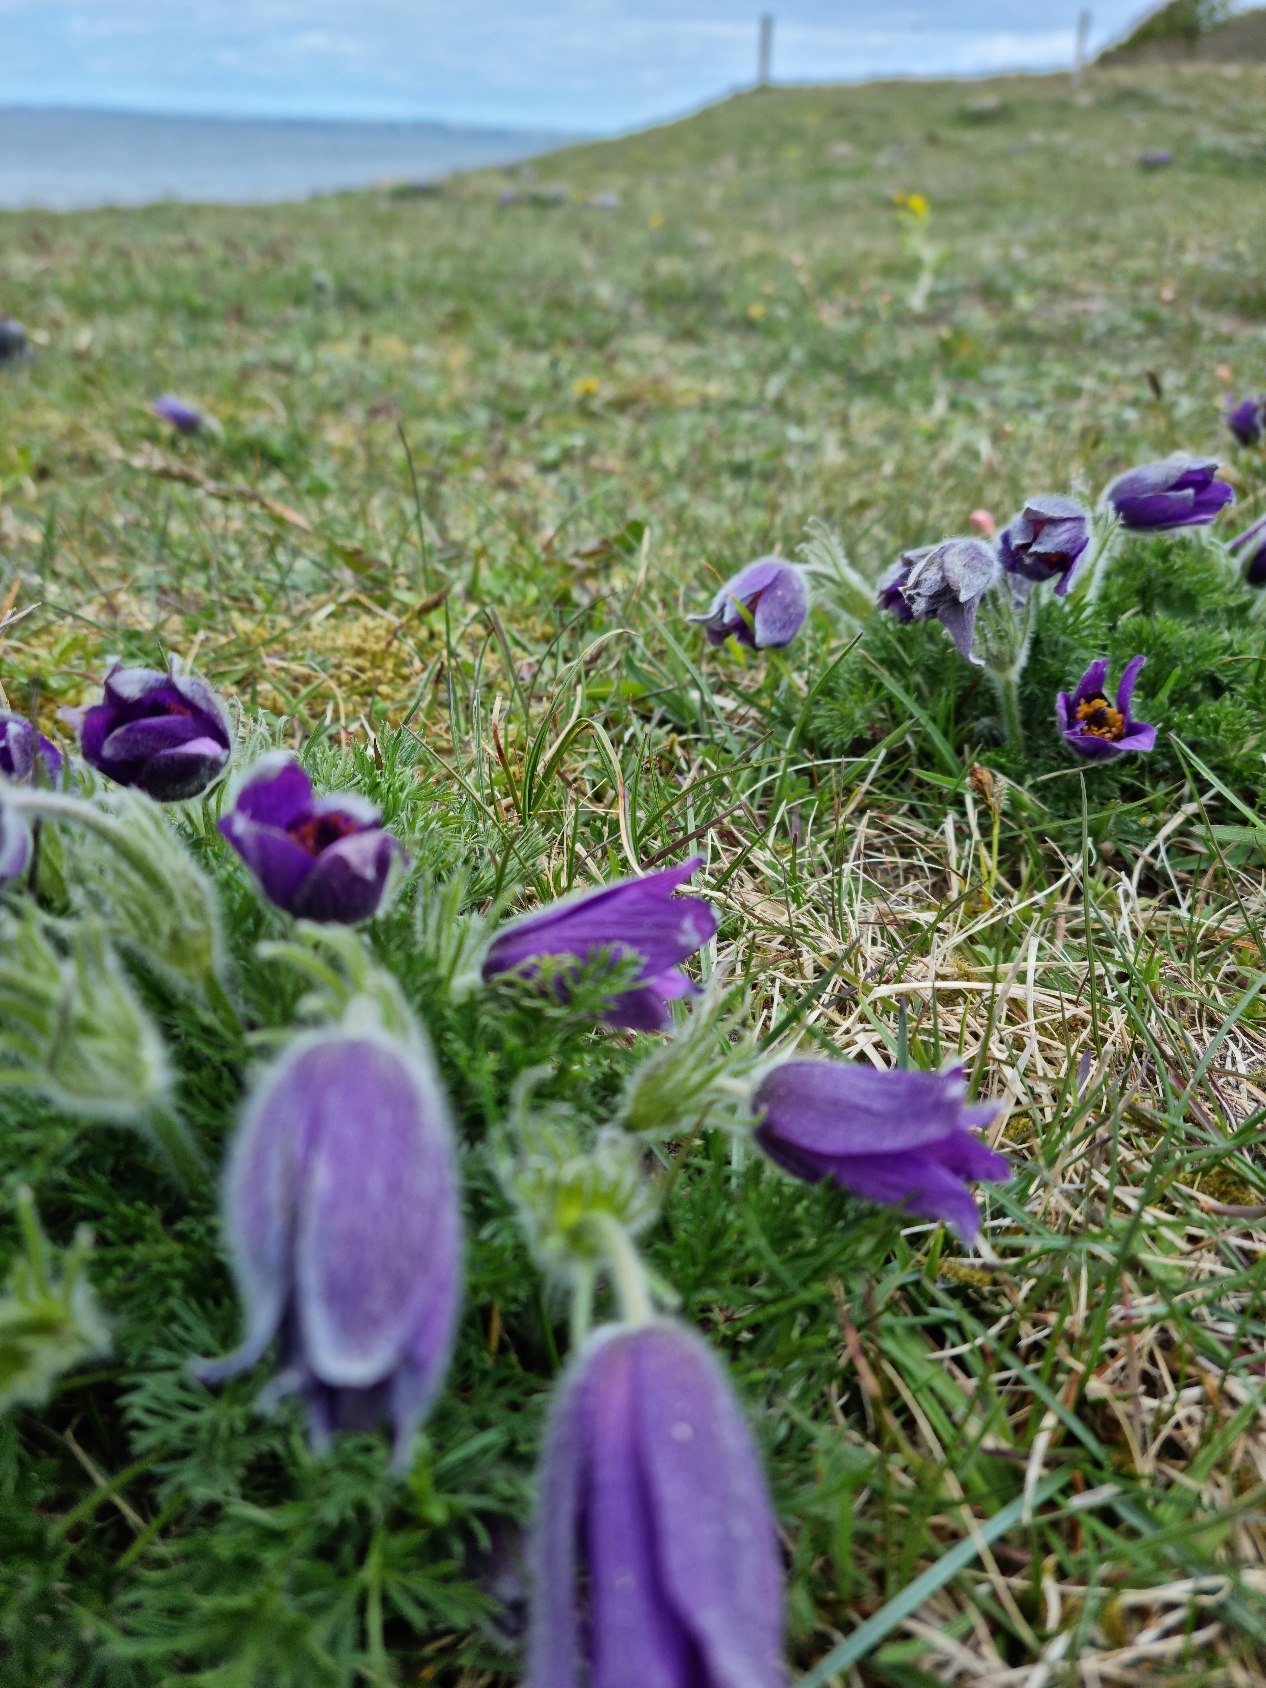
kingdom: Plantae
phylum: Tracheophyta
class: Magnoliopsida
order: Ranunculales
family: Ranunculaceae
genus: Pulsatilla
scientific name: Pulsatilla vulgaris
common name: Opret kobjælde
